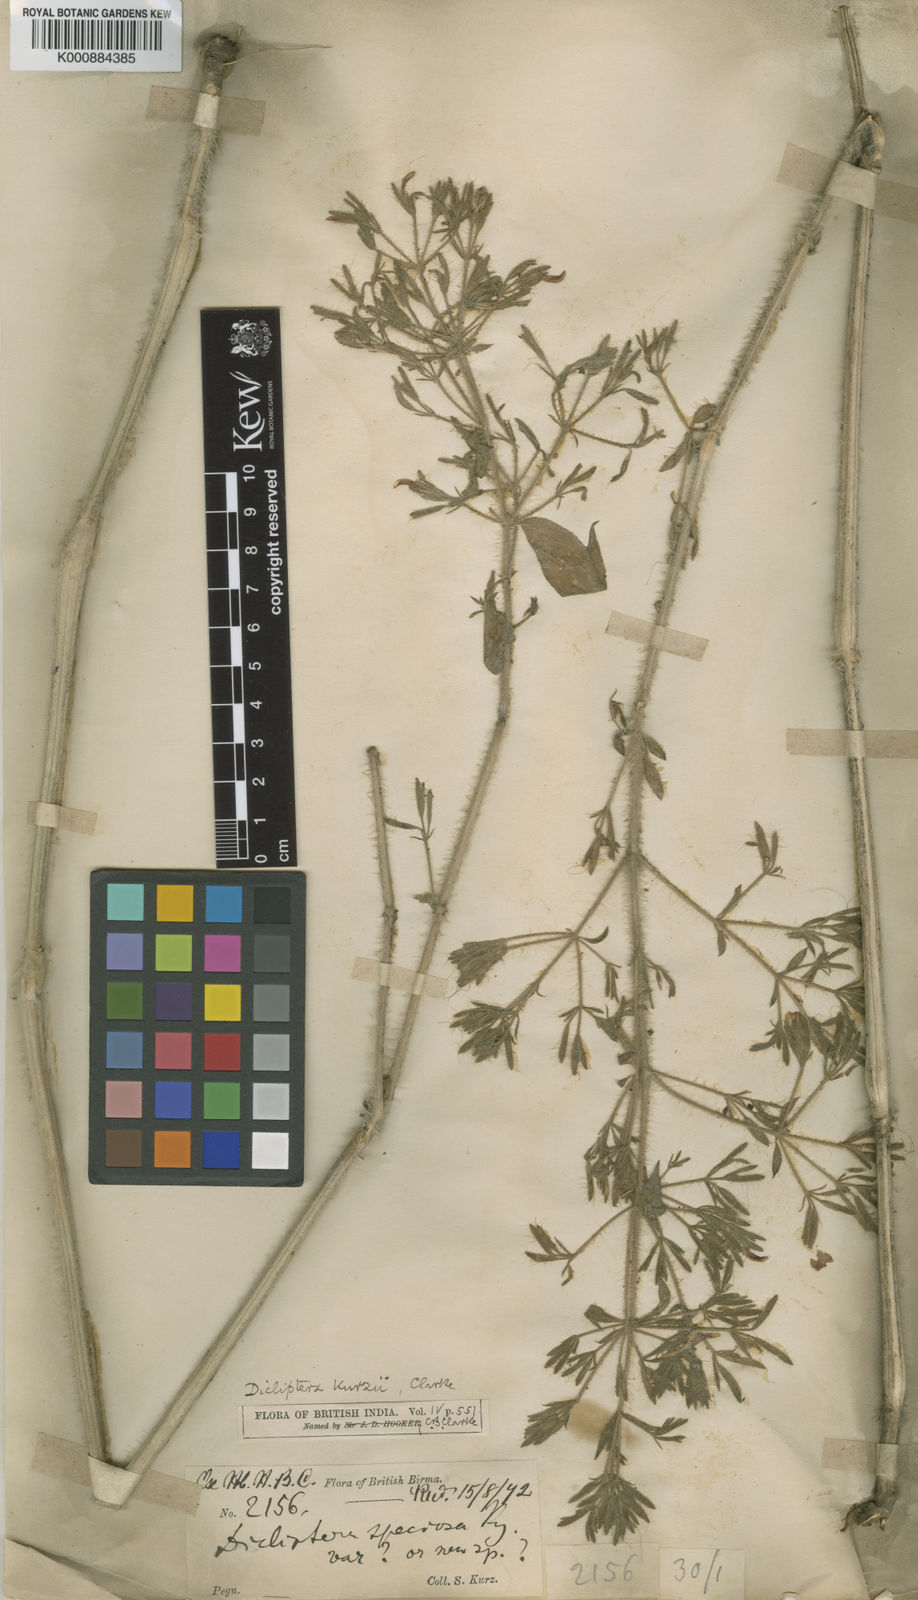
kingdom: Plantae
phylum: Tracheophyta
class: Magnoliopsida
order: Lamiales
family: Acanthaceae
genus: Dicliptera
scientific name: Dicliptera kurzii
